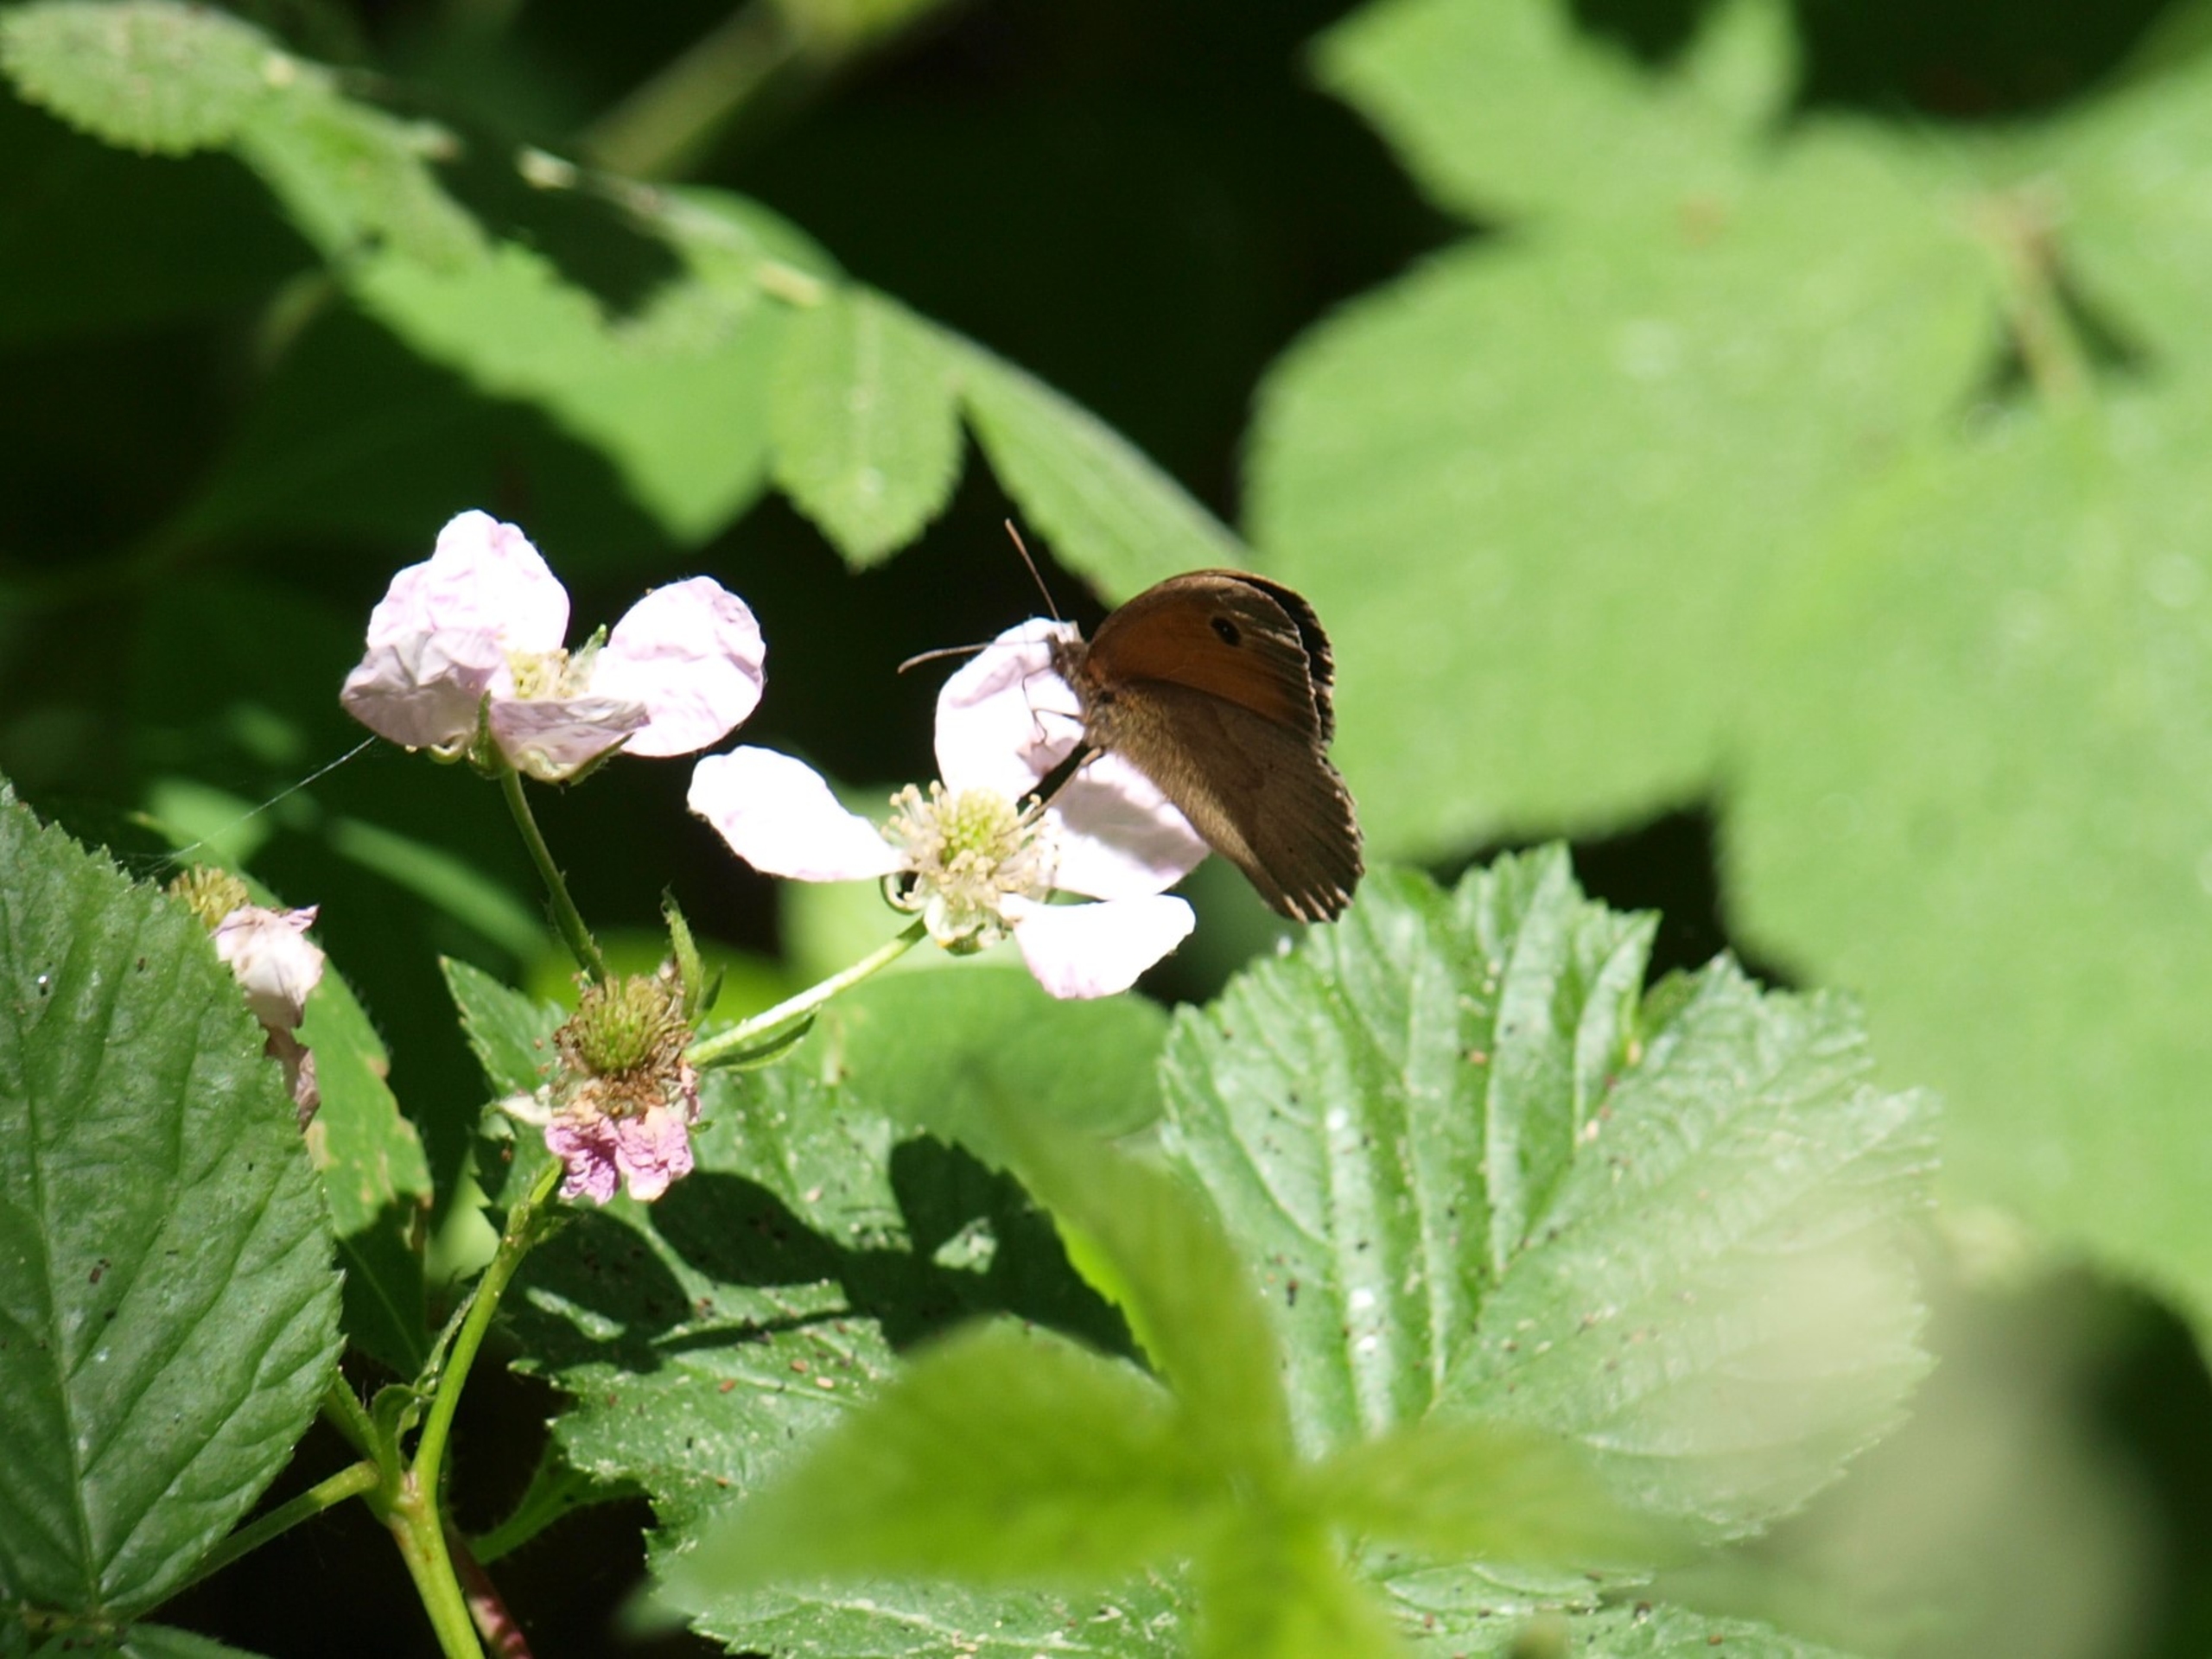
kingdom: Animalia
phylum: Arthropoda
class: Insecta
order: Lepidoptera
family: Nymphalidae
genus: Maniola
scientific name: Maniola jurtina
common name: Græsrandøje
